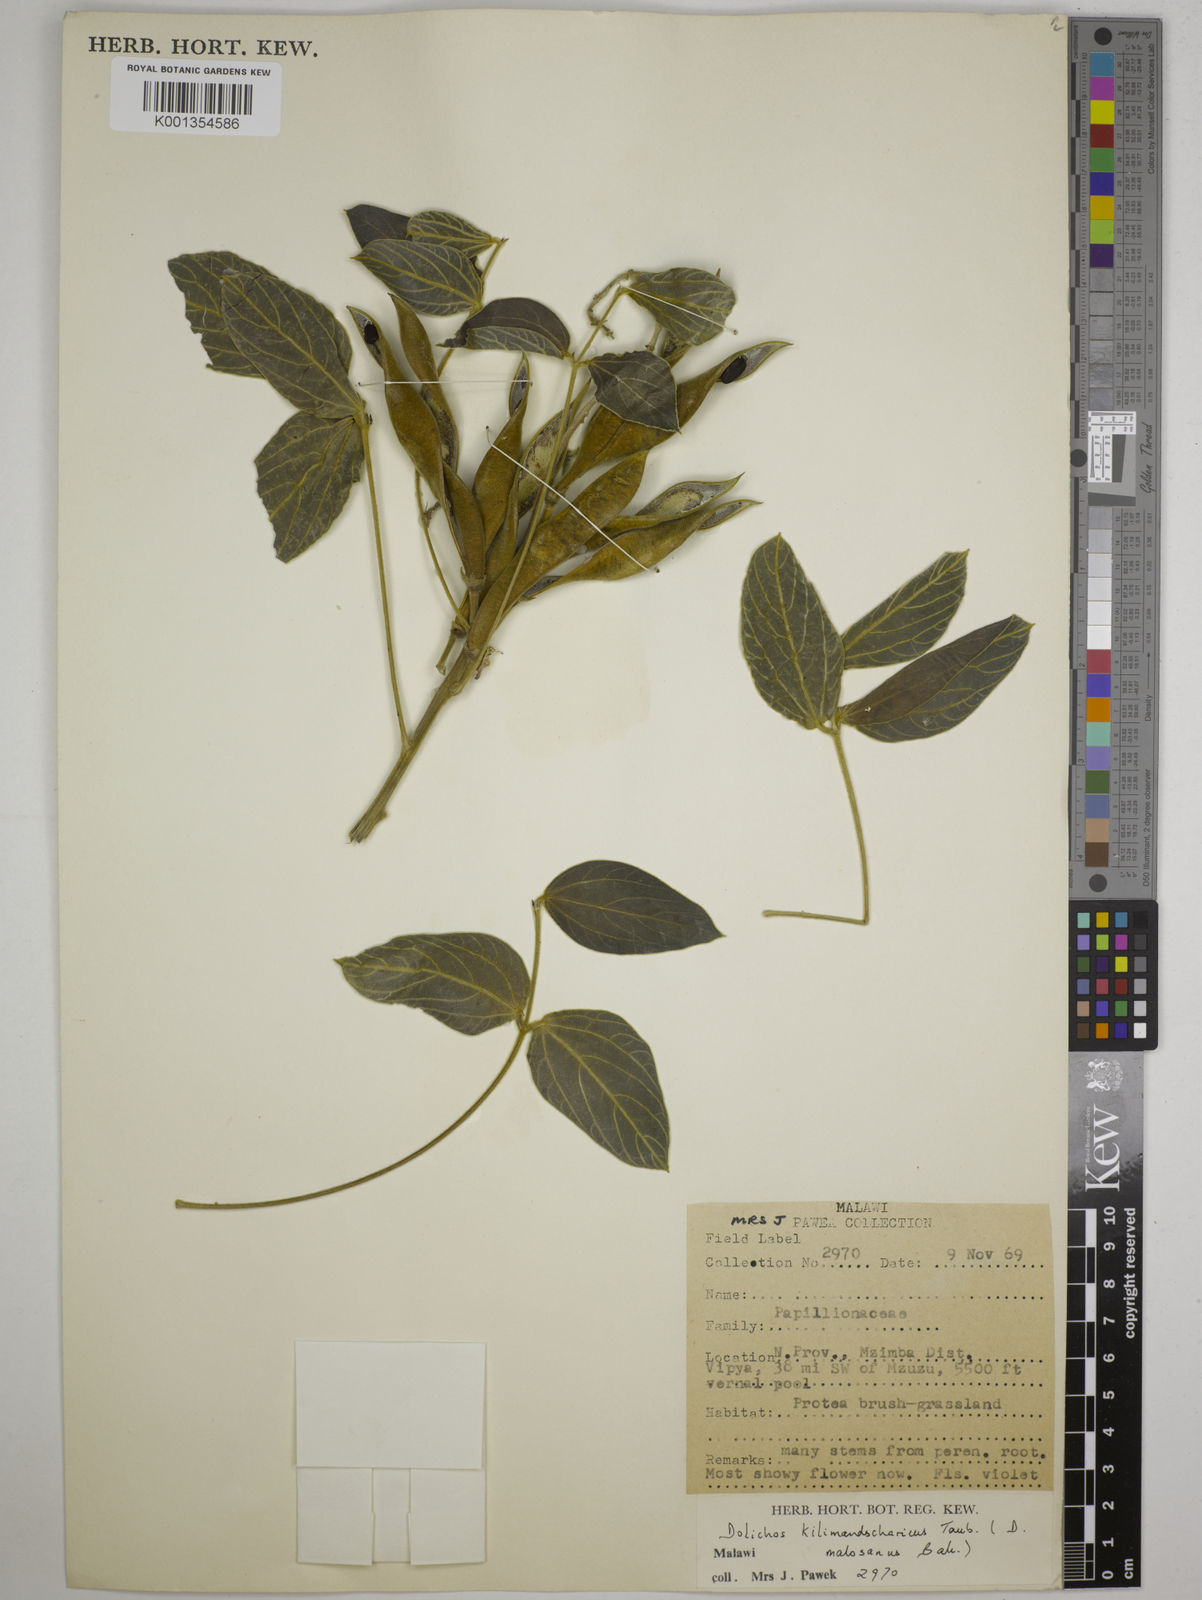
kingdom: Plantae
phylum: Tracheophyta
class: Magnoliopsida
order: Fabales
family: Fabaceae
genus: Dolichos
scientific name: Dolichos kilimandscharicus
